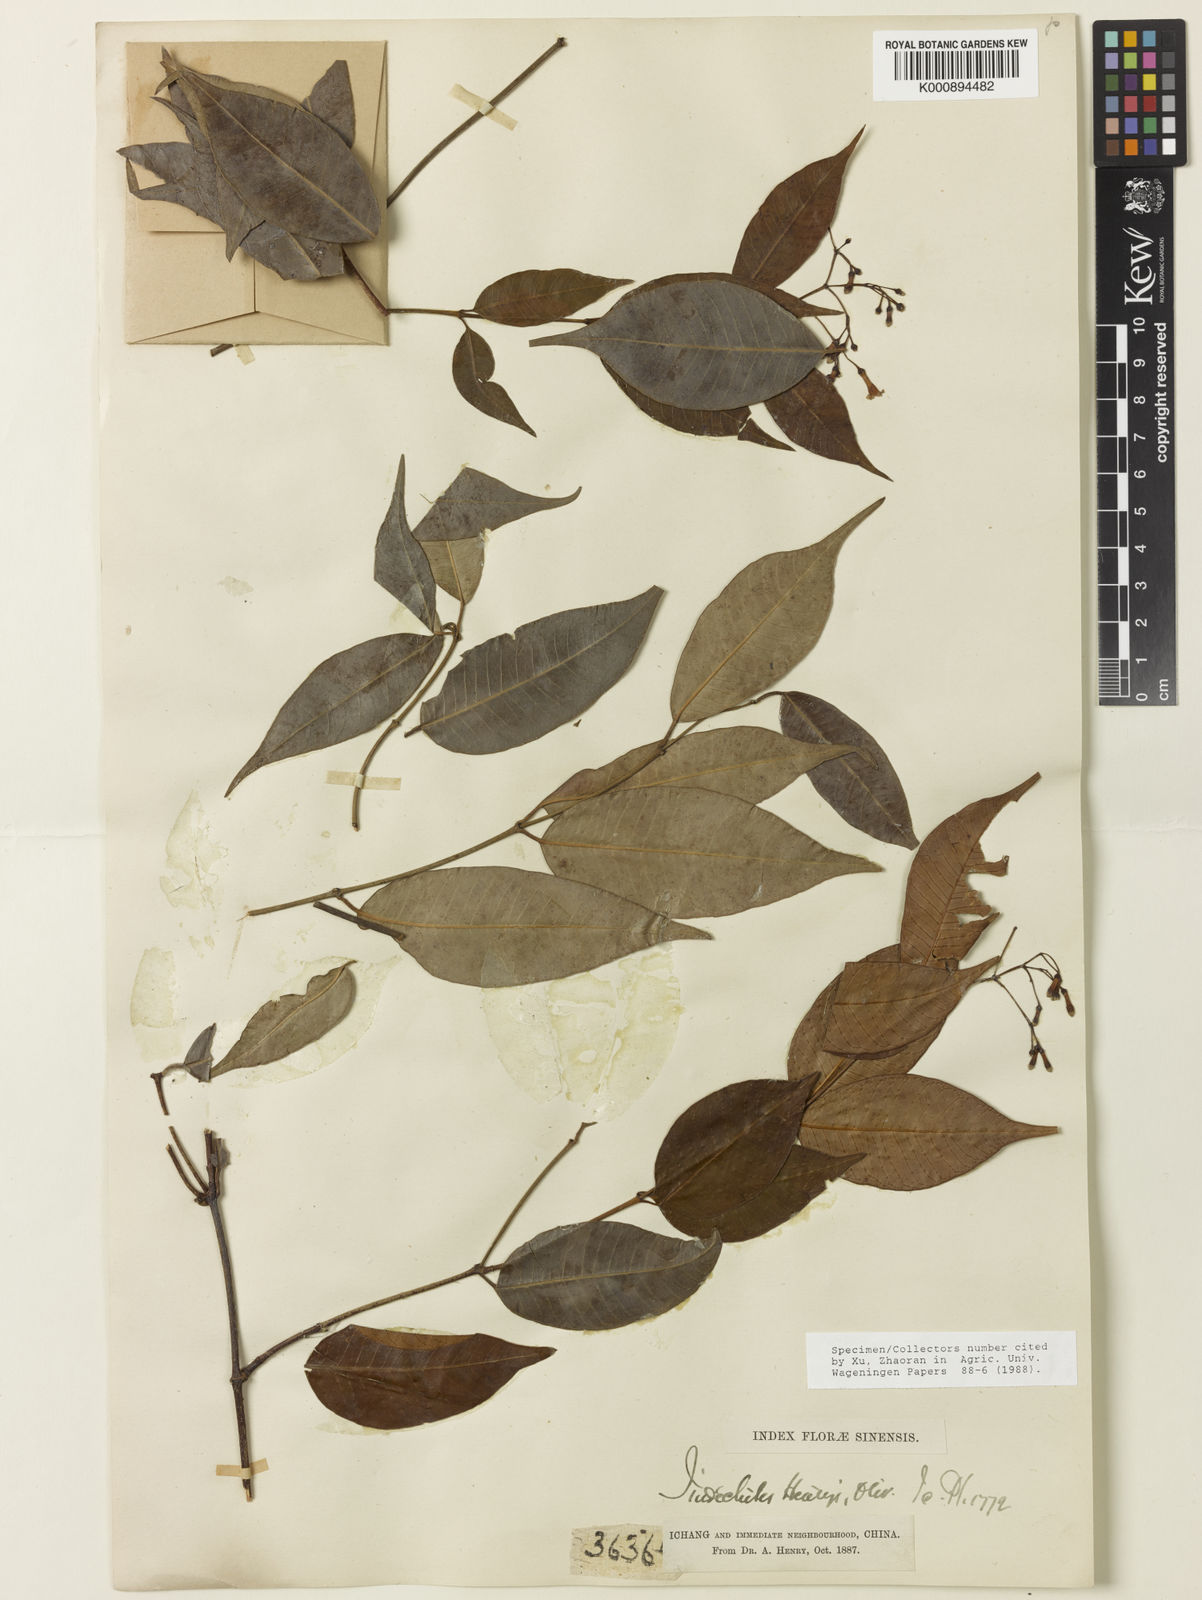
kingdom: Plantae
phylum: Tracheophyta
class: Magnoliopsida
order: Gentianales
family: Apocynaceae
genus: Sindechites
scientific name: Sindechites henryi
